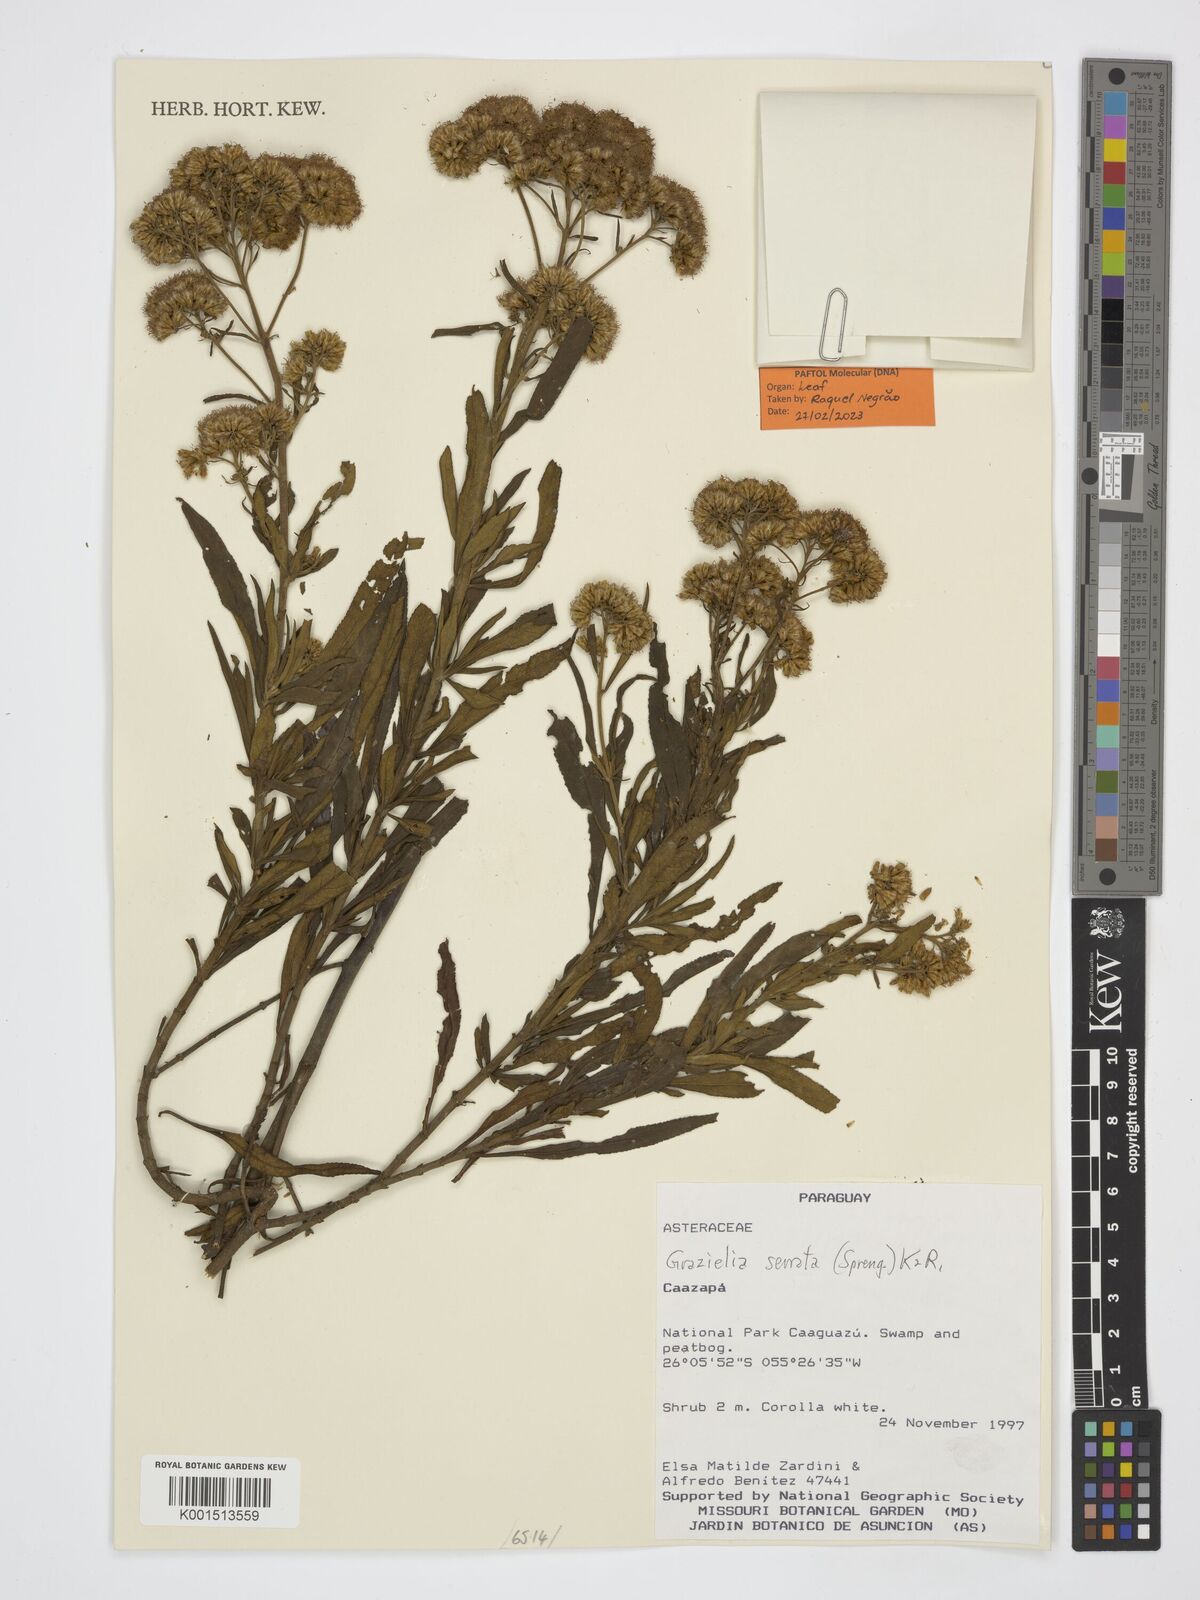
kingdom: Plantae
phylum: Tracheophyta
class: Magnoliopsida
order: Asterales
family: Asteraceae
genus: Grazielia
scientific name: Grazielia serrata
